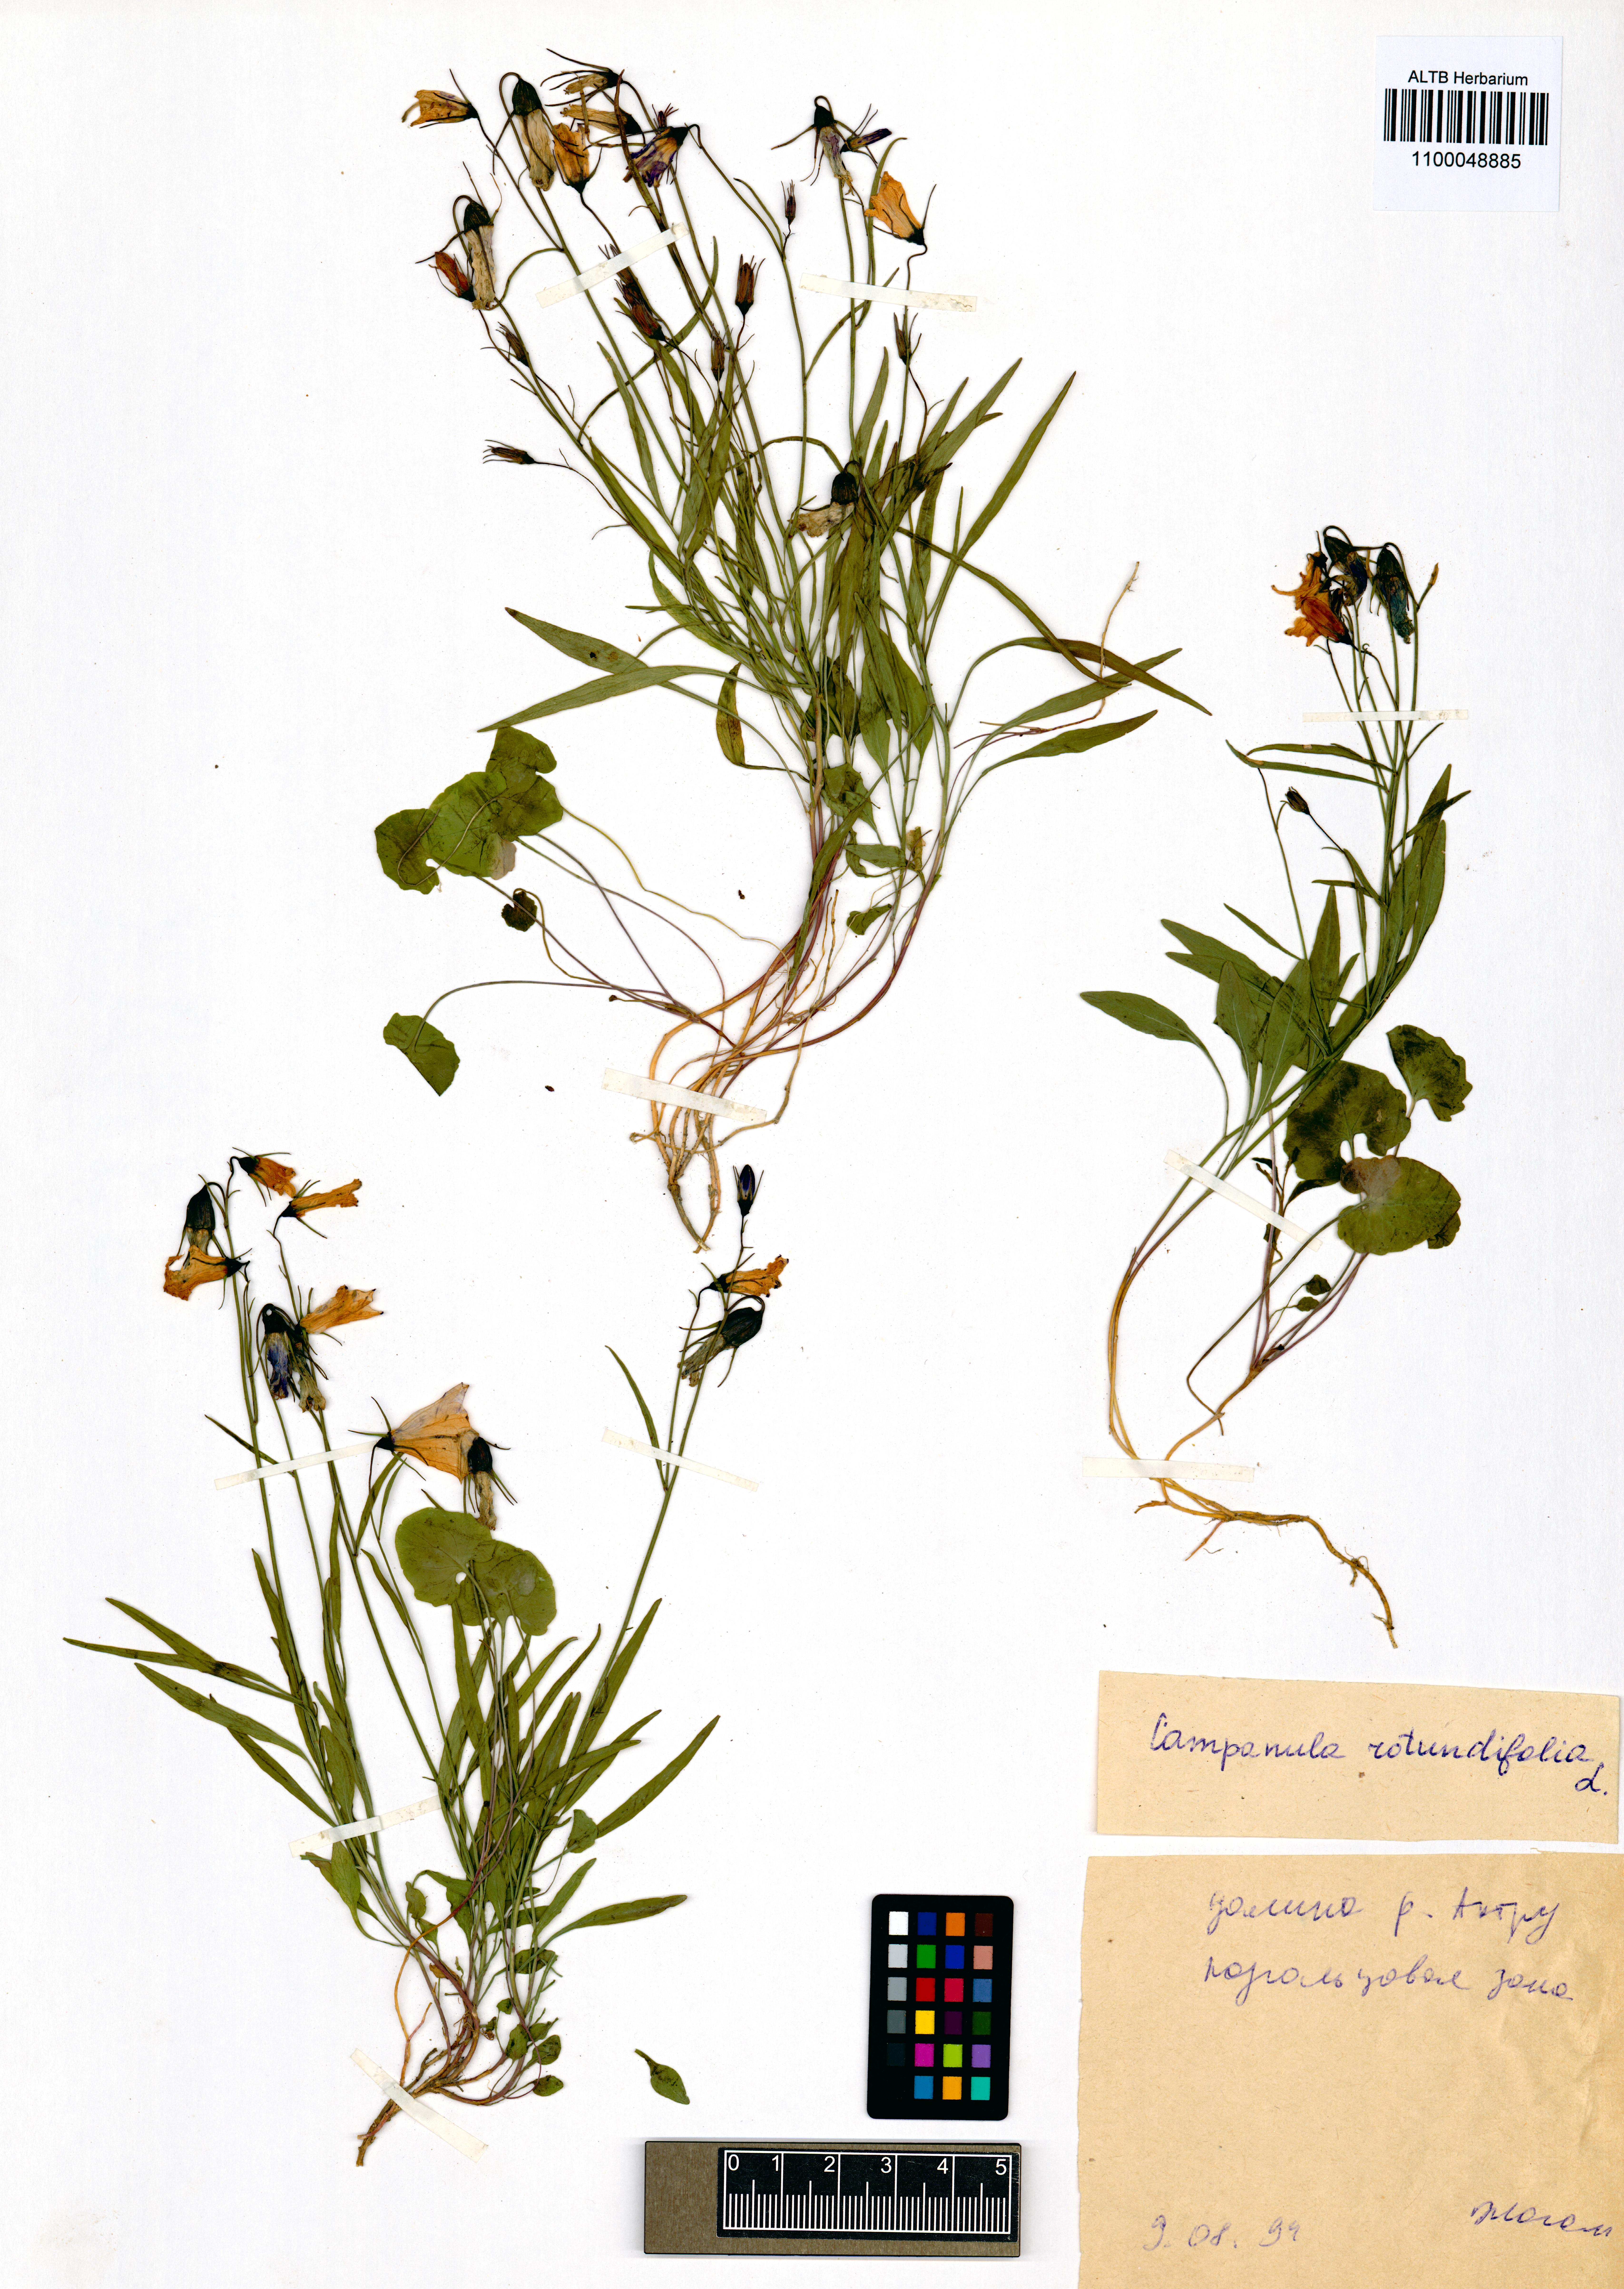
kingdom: Plantae
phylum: Tracheophyta
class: Magnoliopsida
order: Asterales
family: Campanulaceae
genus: Campanula
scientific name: Campanula rotundifolia
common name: Harebell
